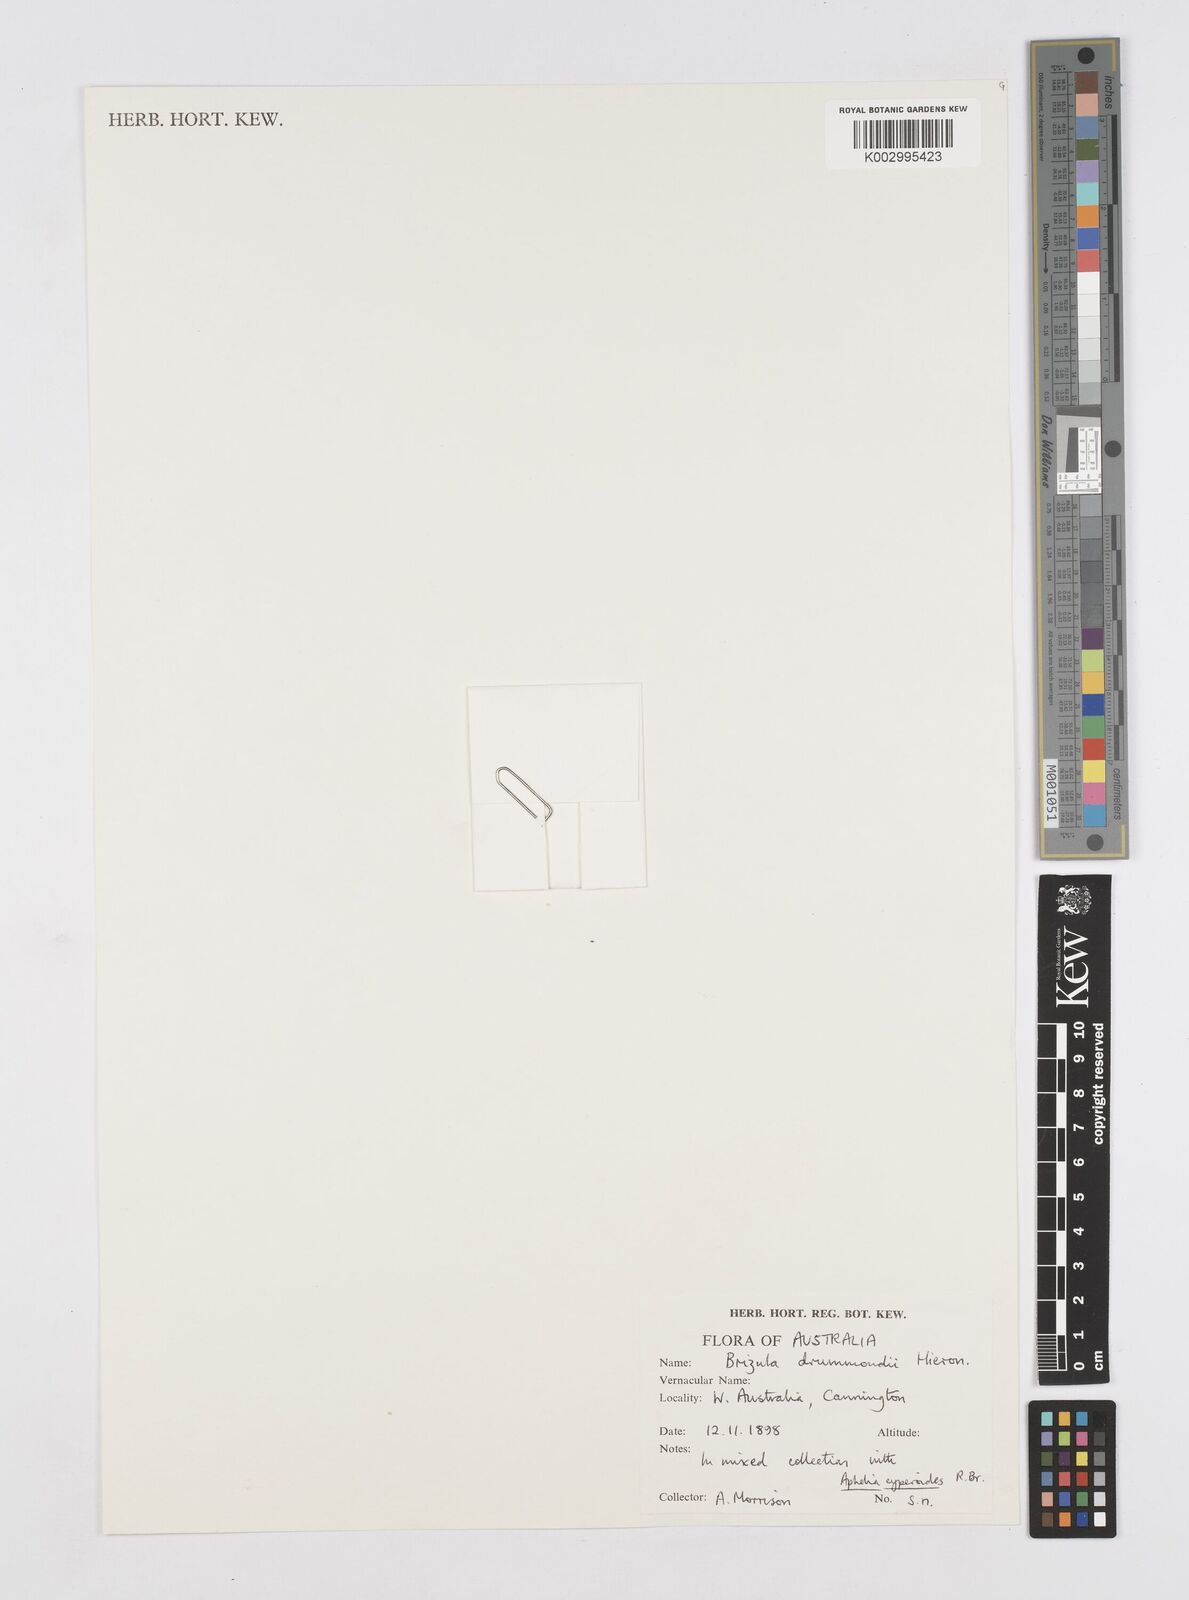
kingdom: Plantae
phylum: Tracheophyta
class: Liliopsida
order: Poales
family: Restionaceae
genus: Aphelia
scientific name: Aphelia drummondii
